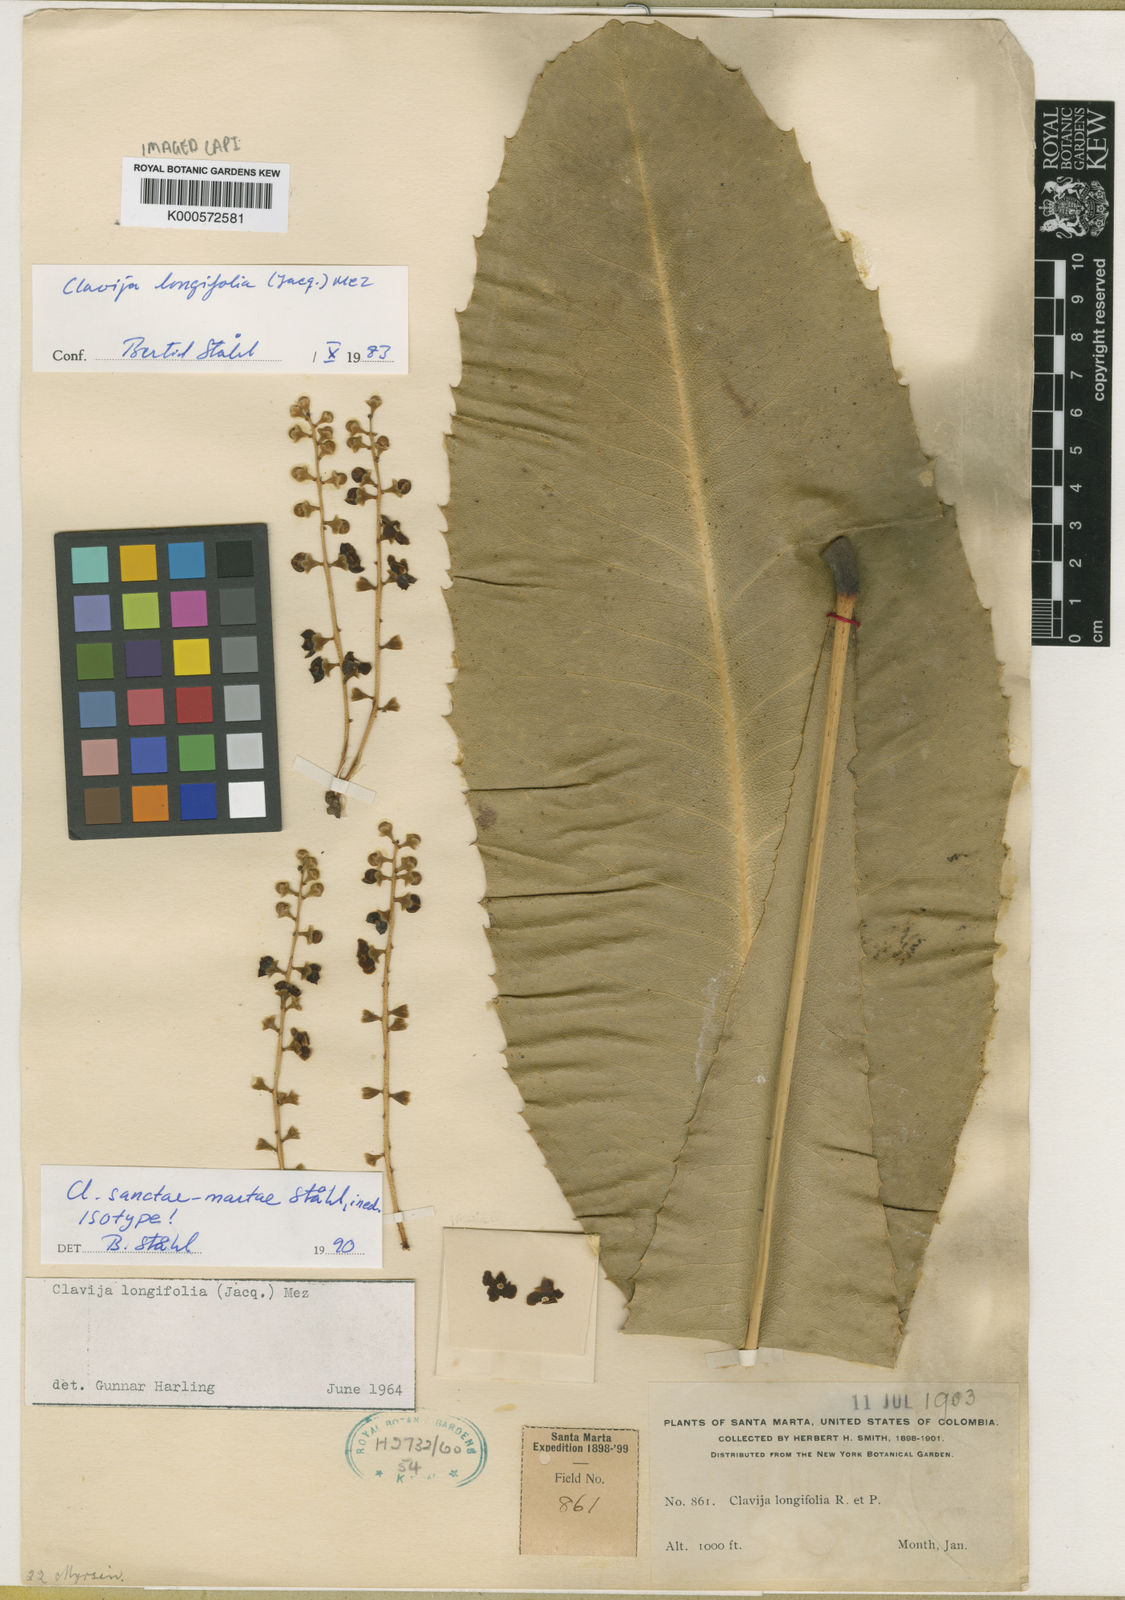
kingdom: Plantae
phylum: Tracheophyta
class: Magnoliopsida
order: Ericales
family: Primulaceae
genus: Clavija
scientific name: Clavija
